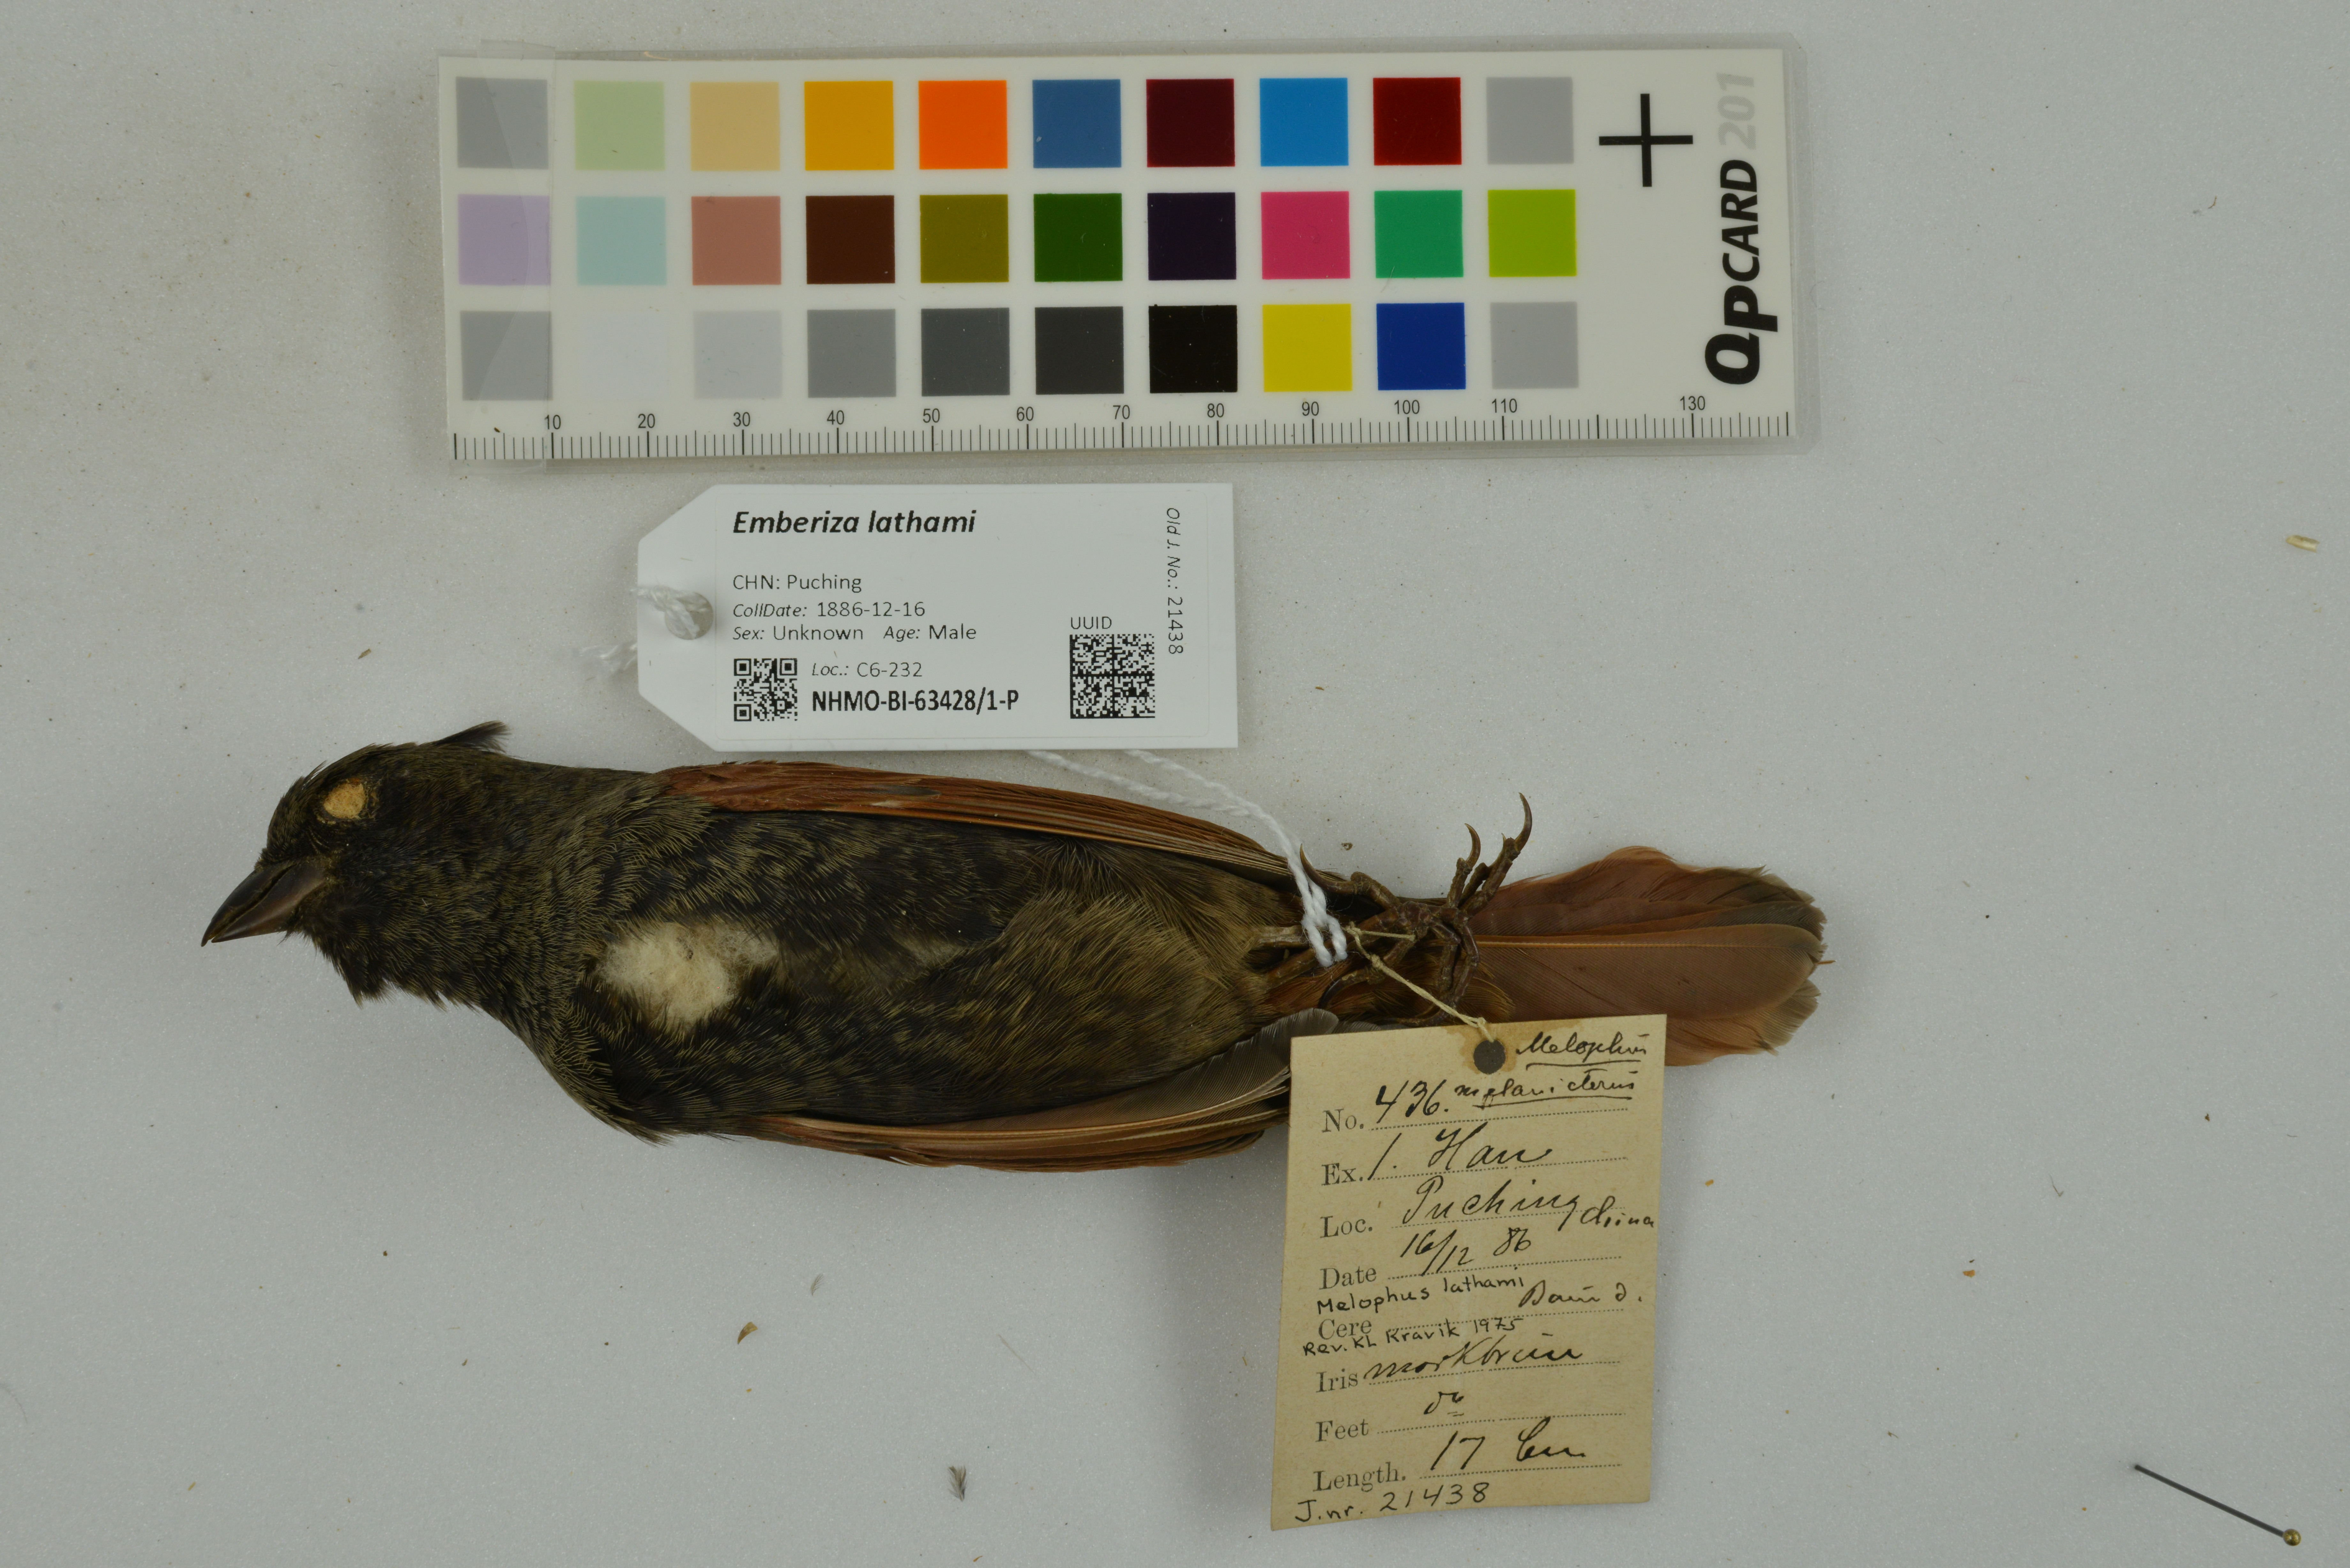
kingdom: Animalia
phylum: Chordata
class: Aves
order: Passeriformes
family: Emberizidae
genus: Emberiza
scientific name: Emberiza lathami
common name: Crested bunting
